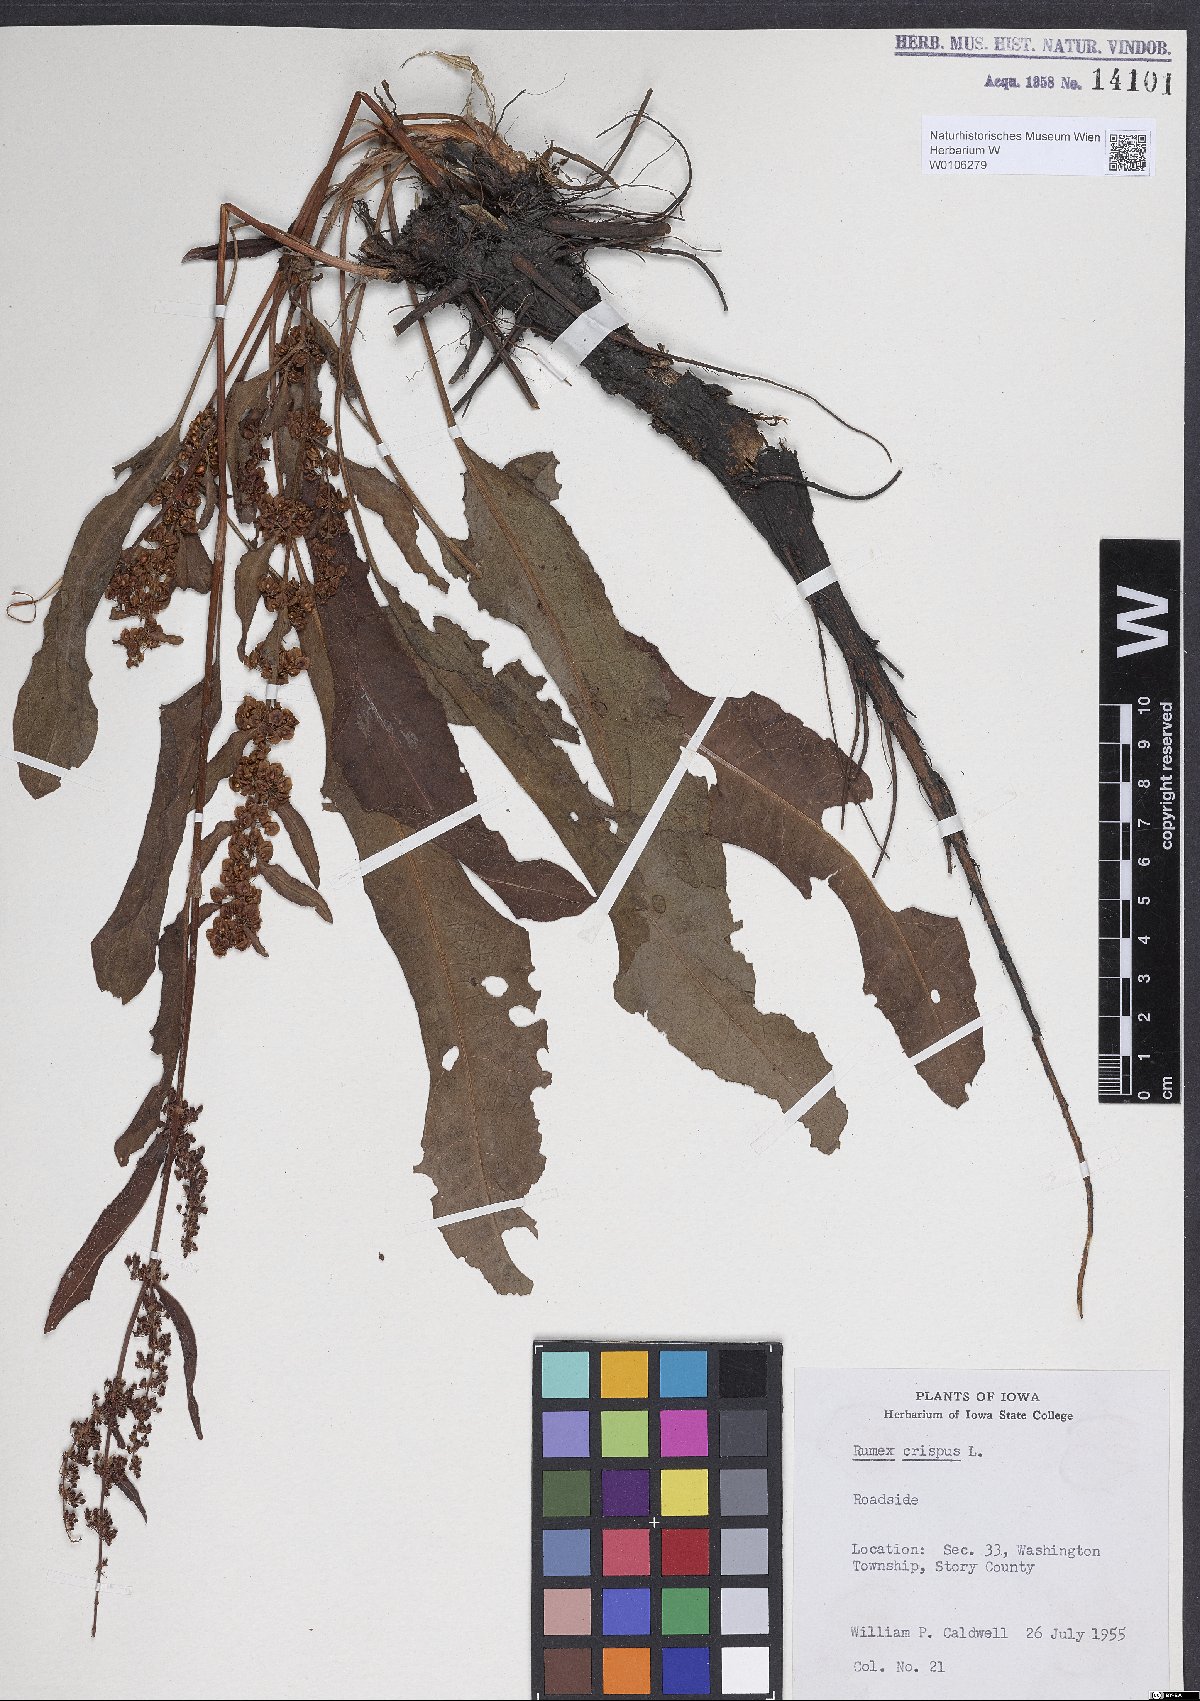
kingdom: Plantae
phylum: Tracheophyta
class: Magnoliopsida
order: Caryophyllales
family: Polygonaceae
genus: Rumex
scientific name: Rumex crispus
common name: Curled dock
